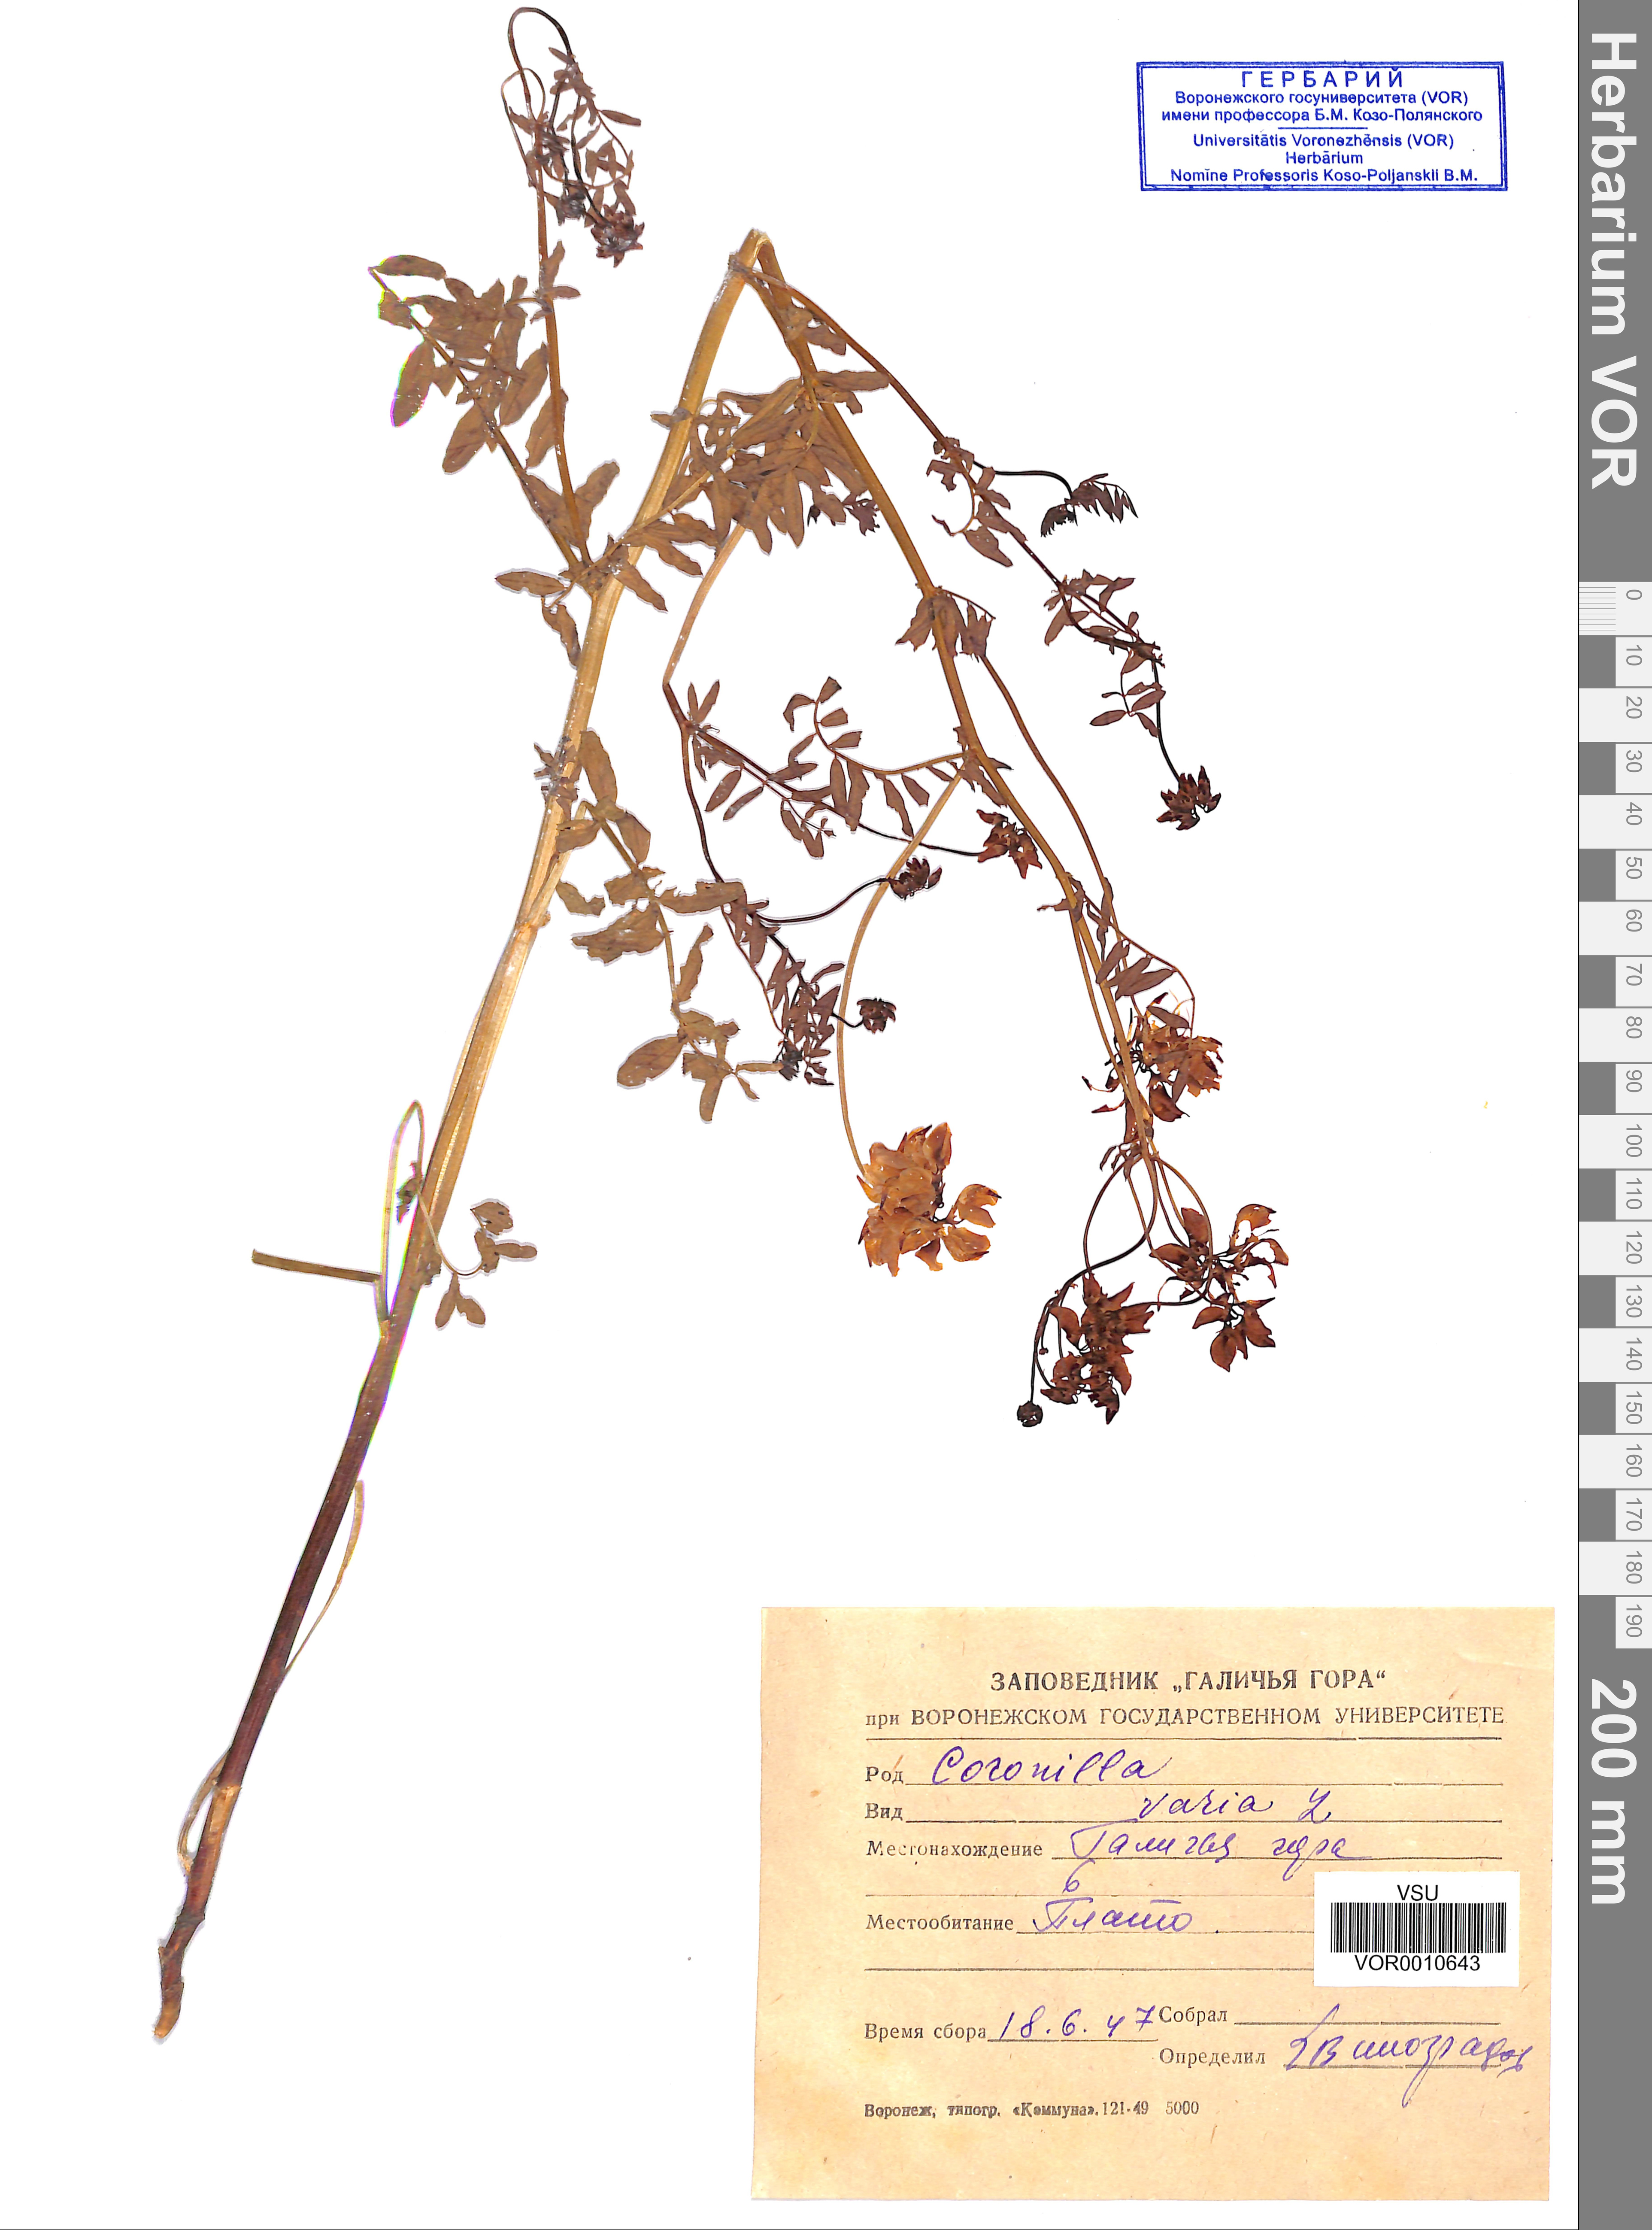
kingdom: Plantae
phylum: Tracheophyta
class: Magnoliopsida
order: Fabales
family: Fabaceae
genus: Coronilla
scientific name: Coronilla varia
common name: Crownvetch
